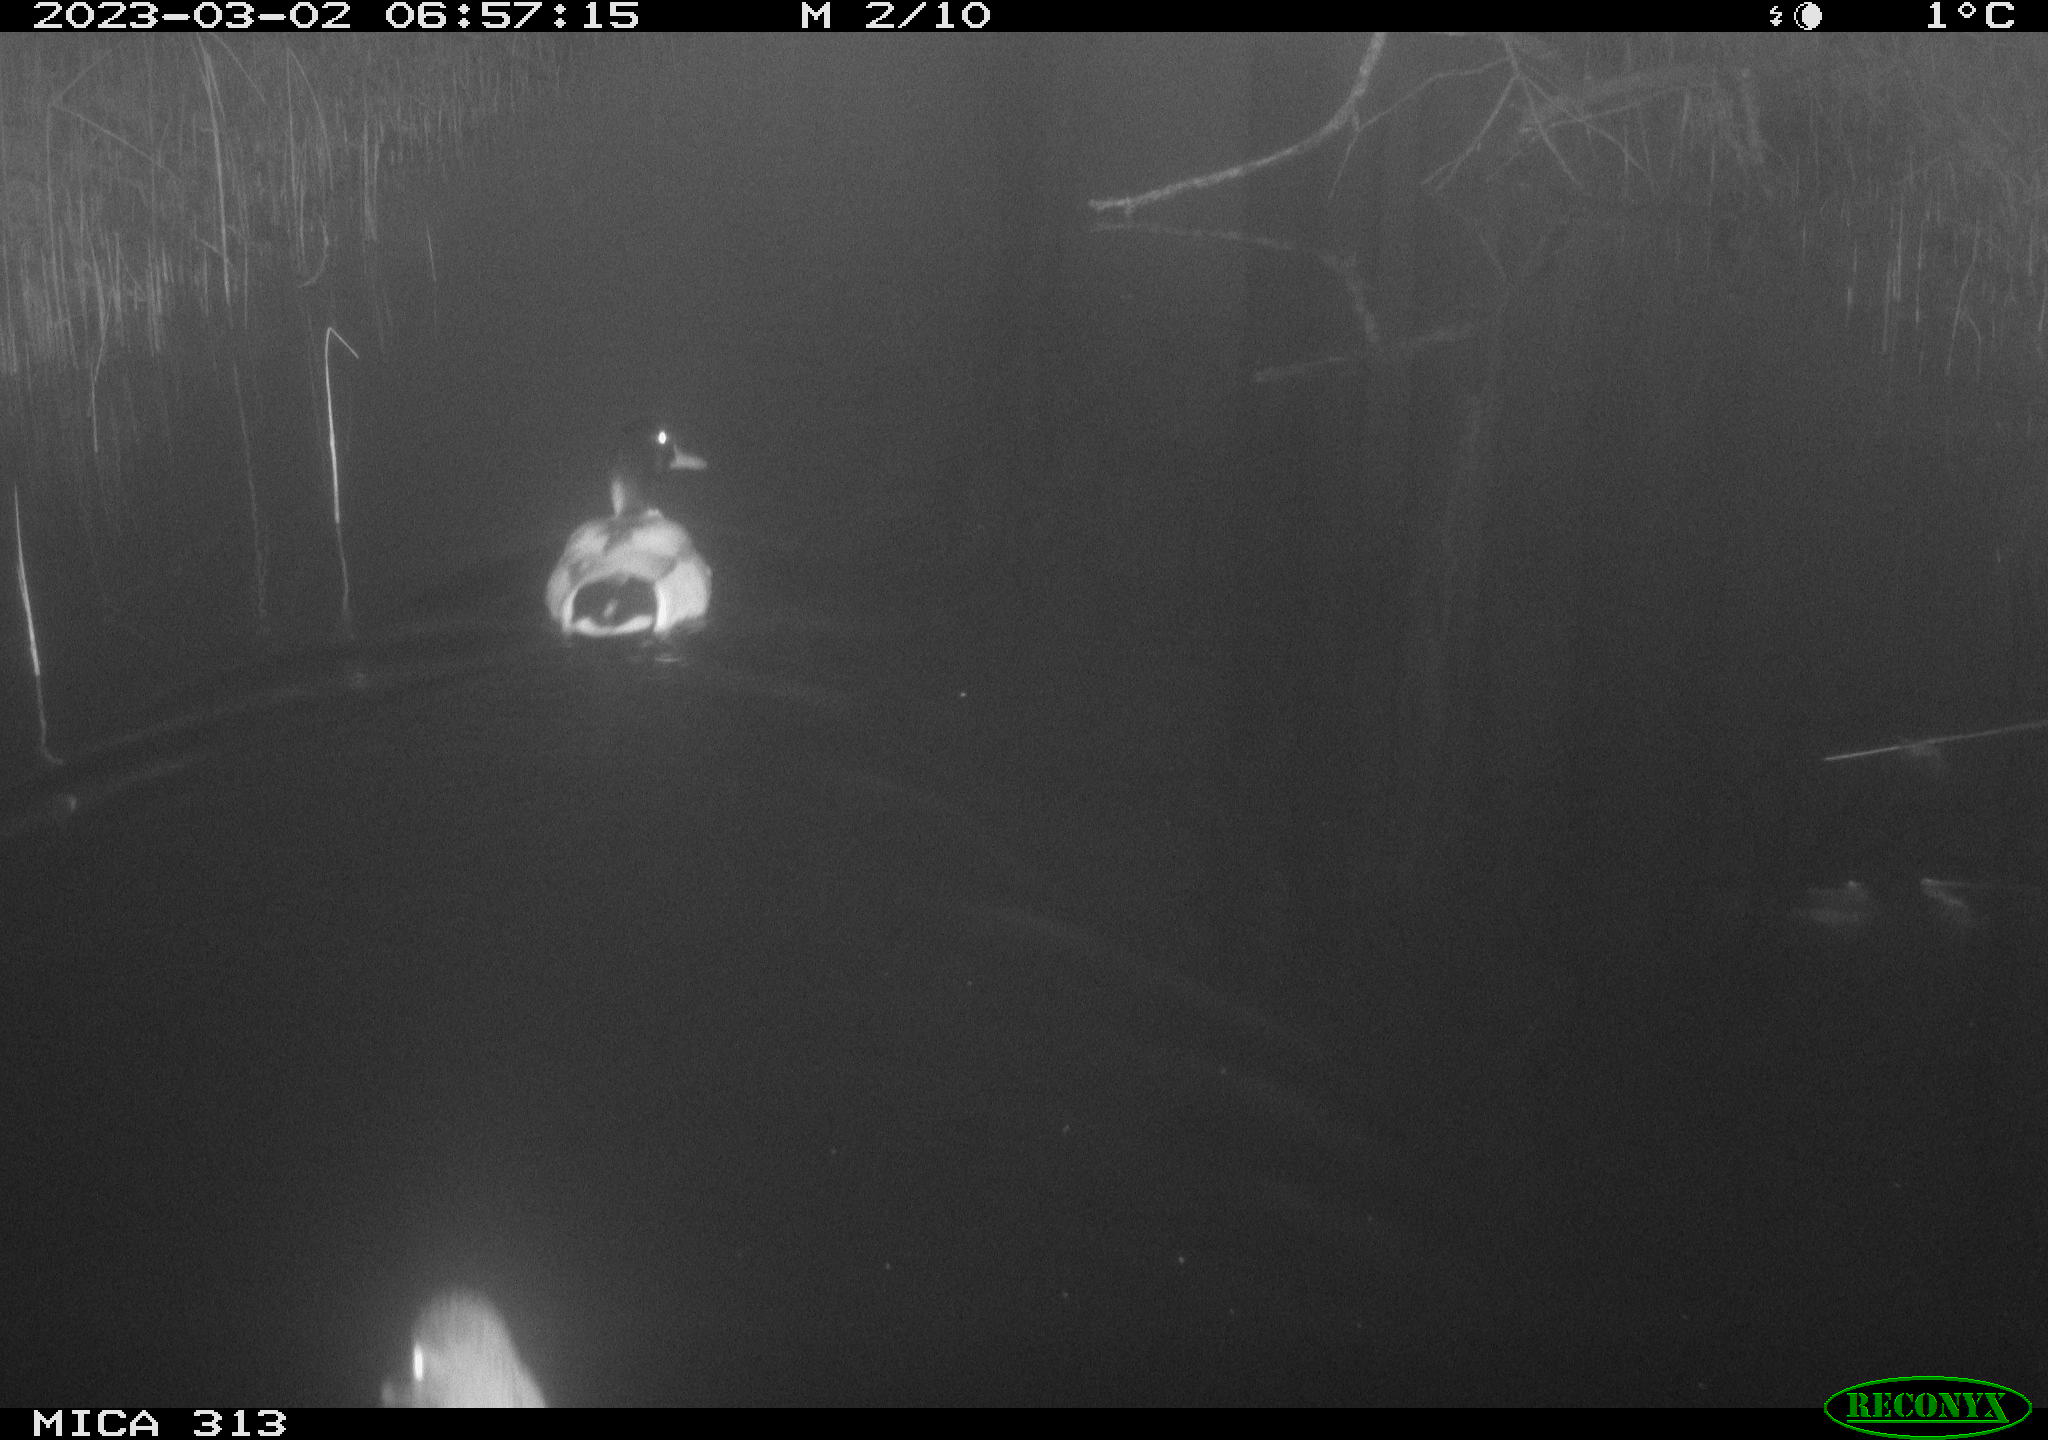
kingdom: Animalia
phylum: Chordata
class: Aves
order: Anseriformes
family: Anatidae
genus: Anas
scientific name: Anas
